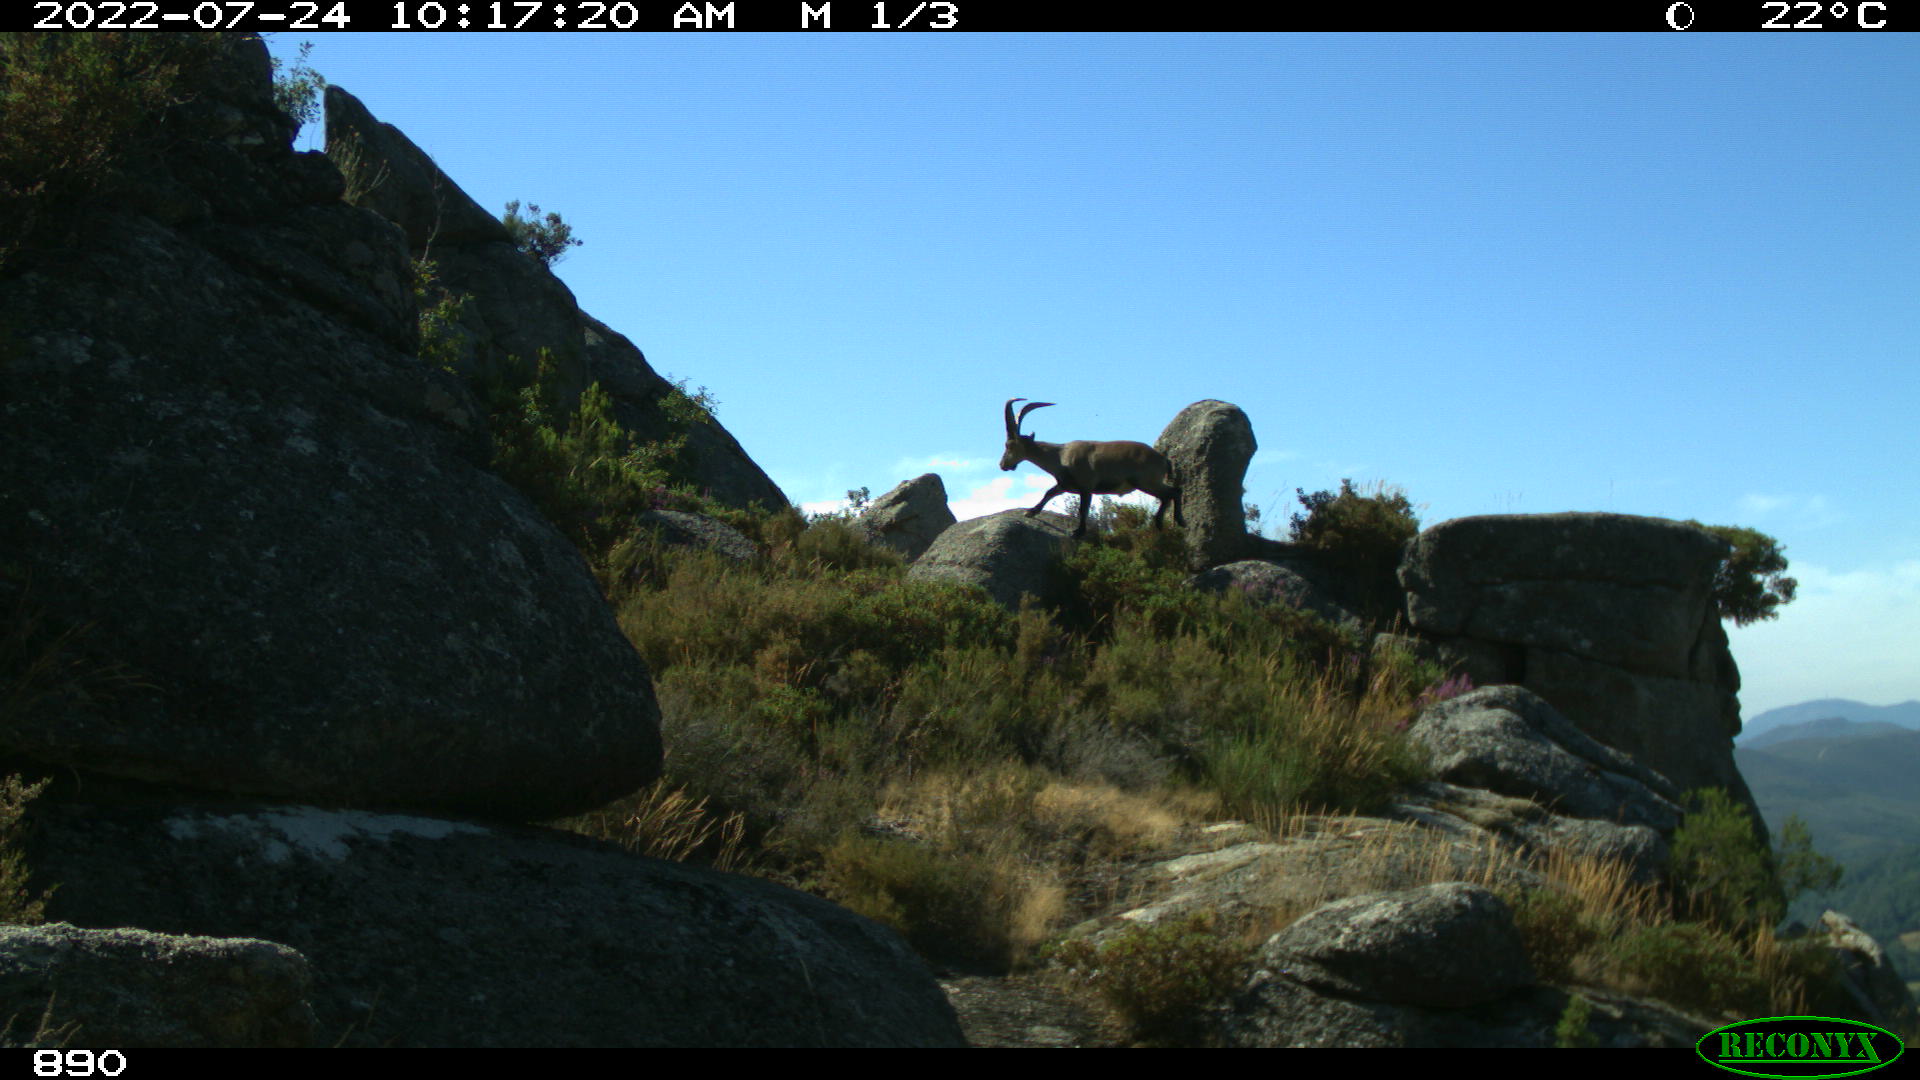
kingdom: Animalia
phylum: Chordata
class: Mammalia
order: Artiodactyla
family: Bovidae
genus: Capra
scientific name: Capra pyrenaica
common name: Spanish ibex
